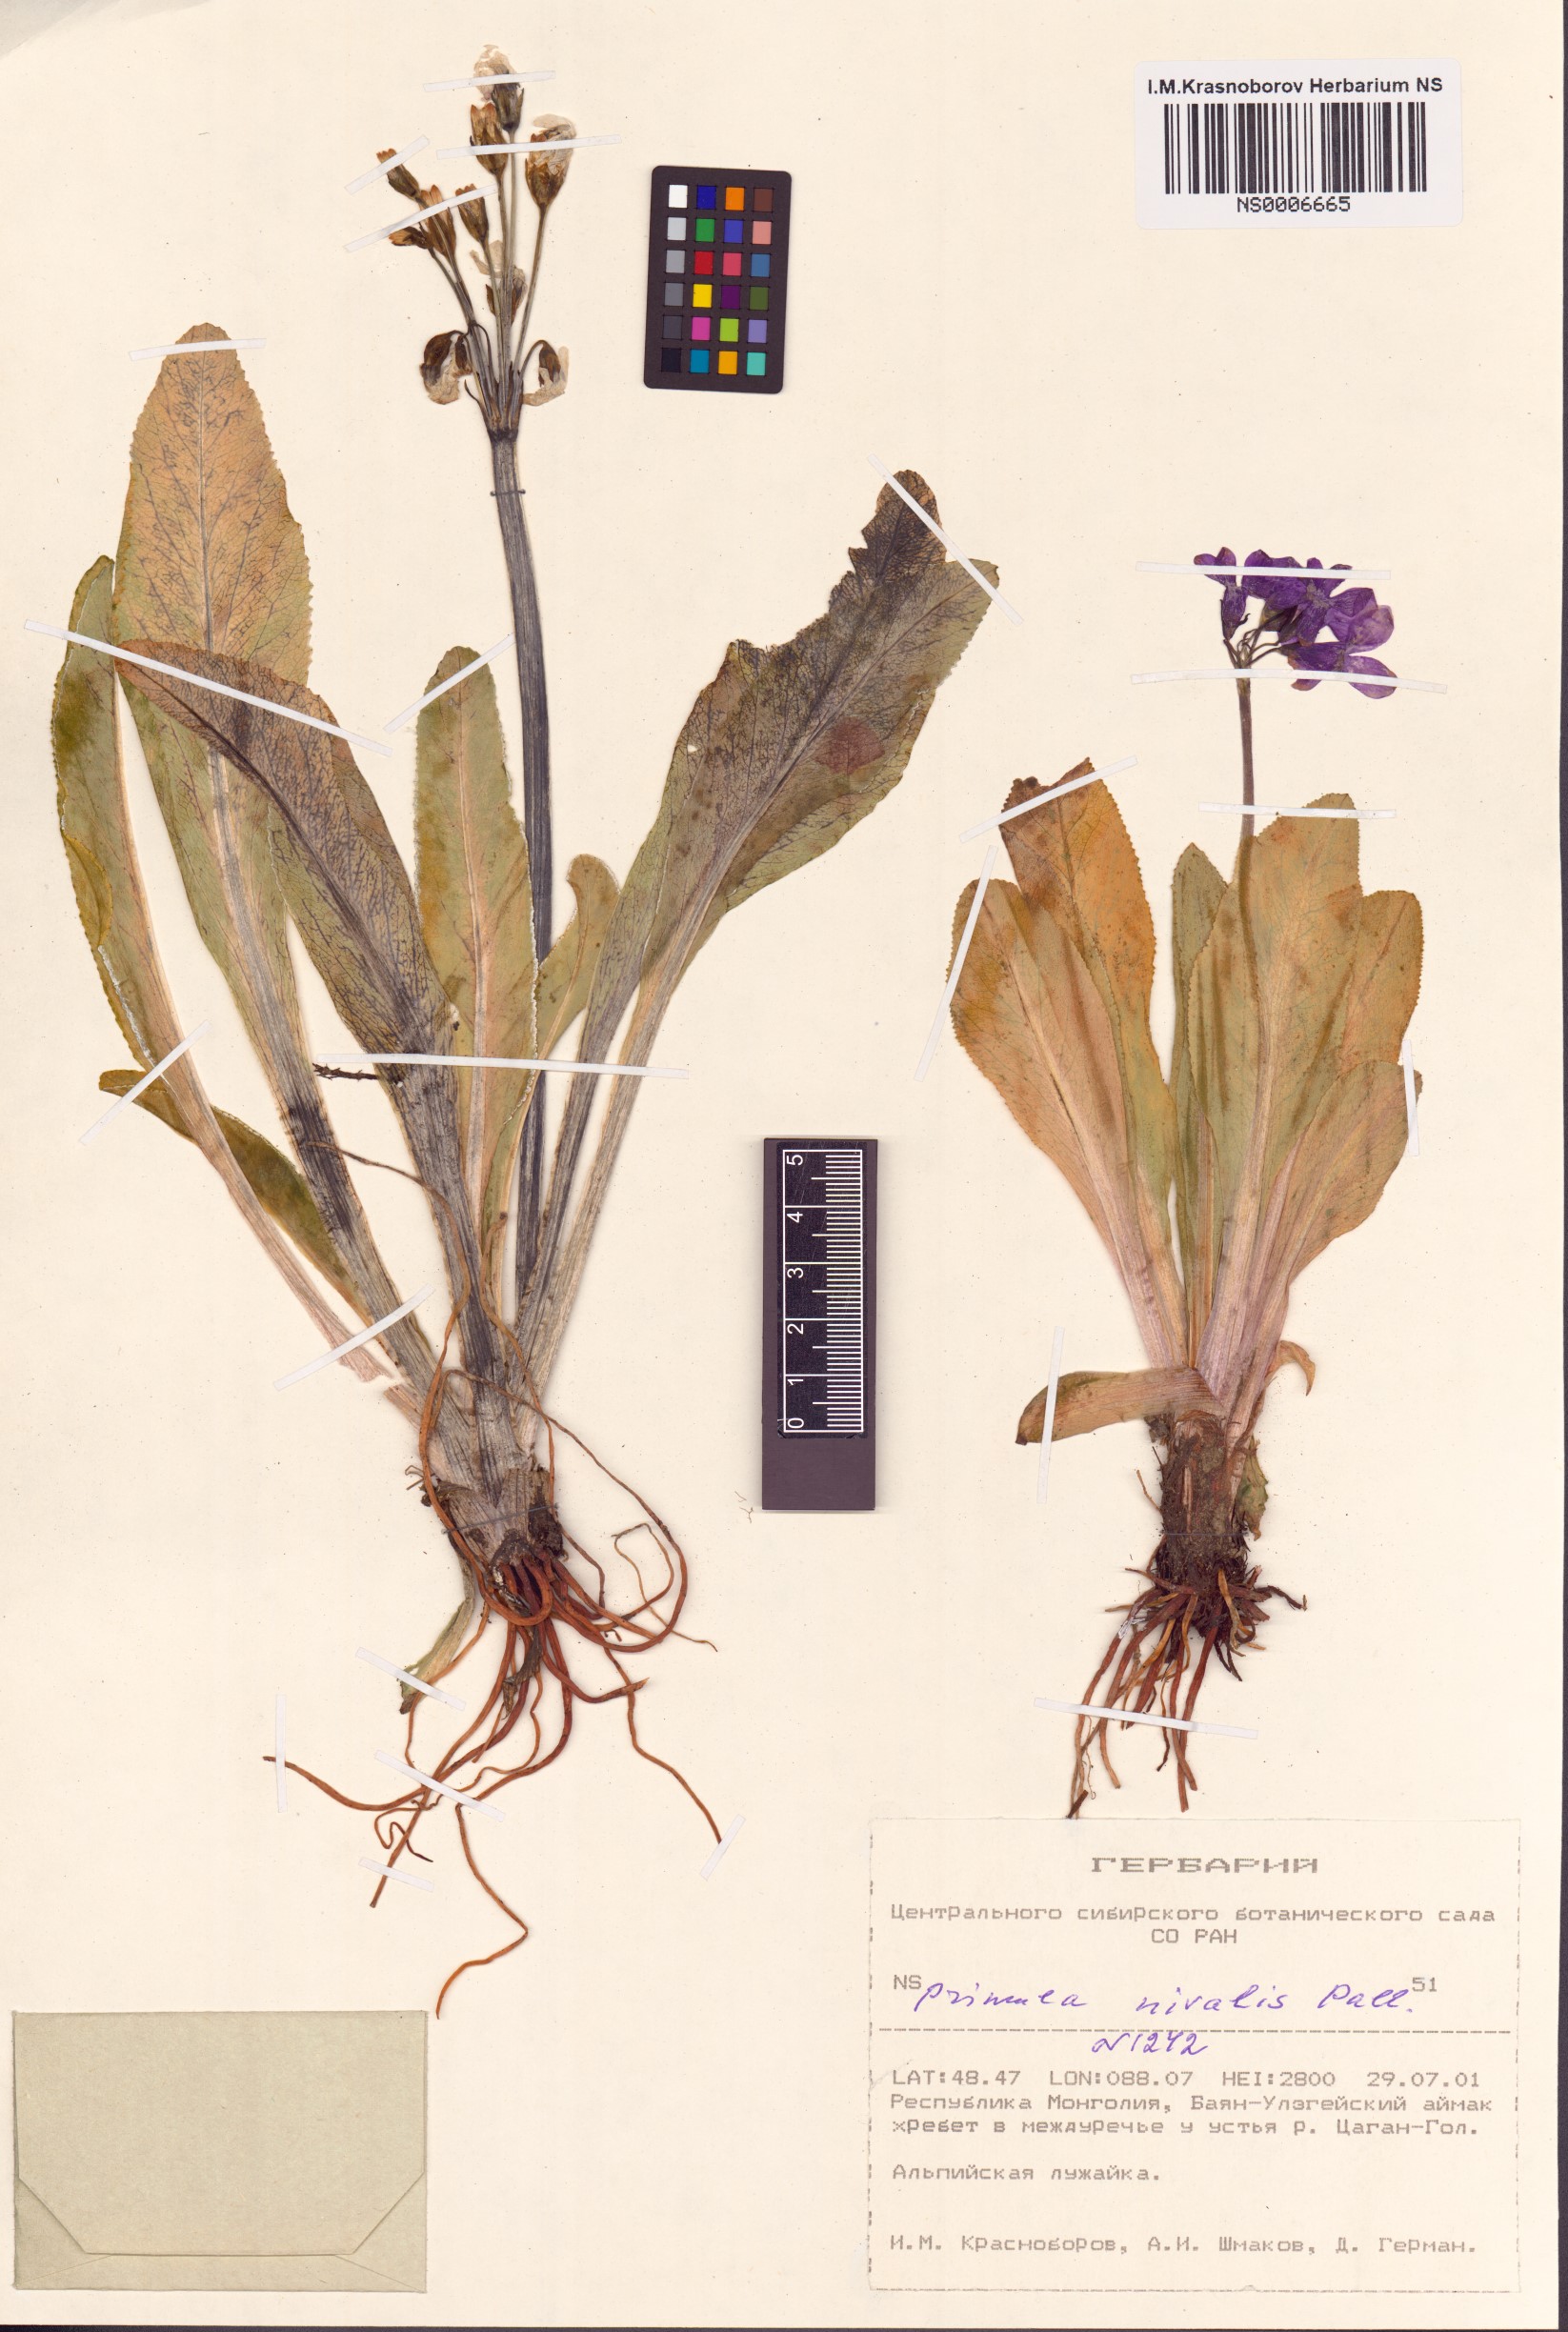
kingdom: Plantae
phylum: Tracheophyta
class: Magnoliopsida
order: Ericales
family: Primulaceae
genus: Primula
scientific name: Primula nivalis
